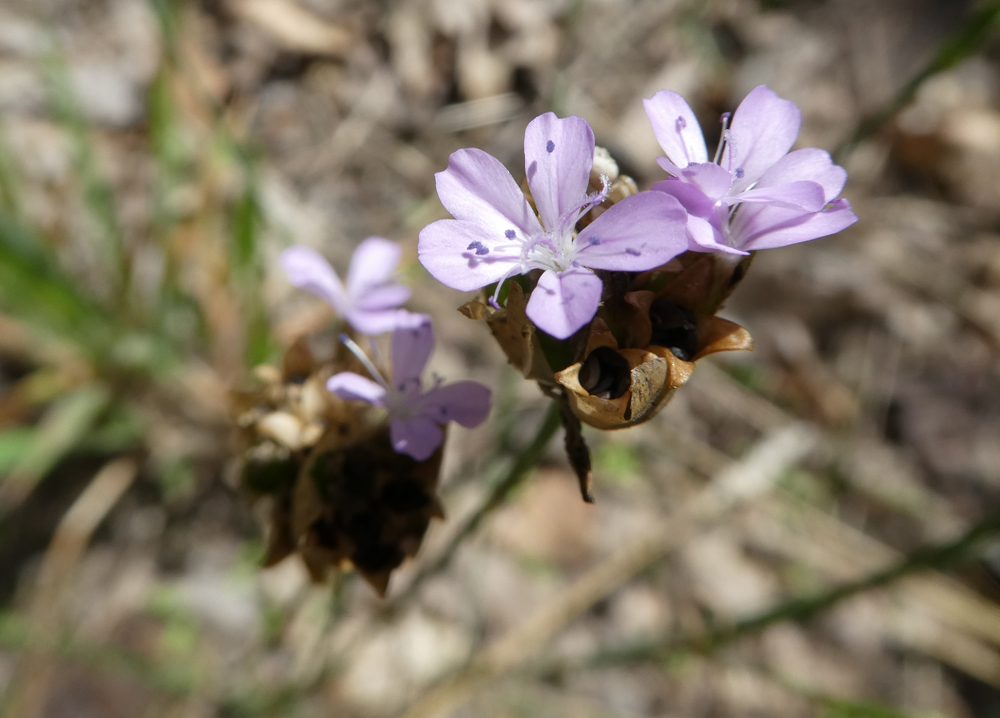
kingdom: Plantae
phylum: Tracheophyta
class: Magnoliopsida
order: Caryophyllales
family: Caryophyllaceae
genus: Petrorhagia
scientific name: Petrorhagia prolifera
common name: Proliferous pink
